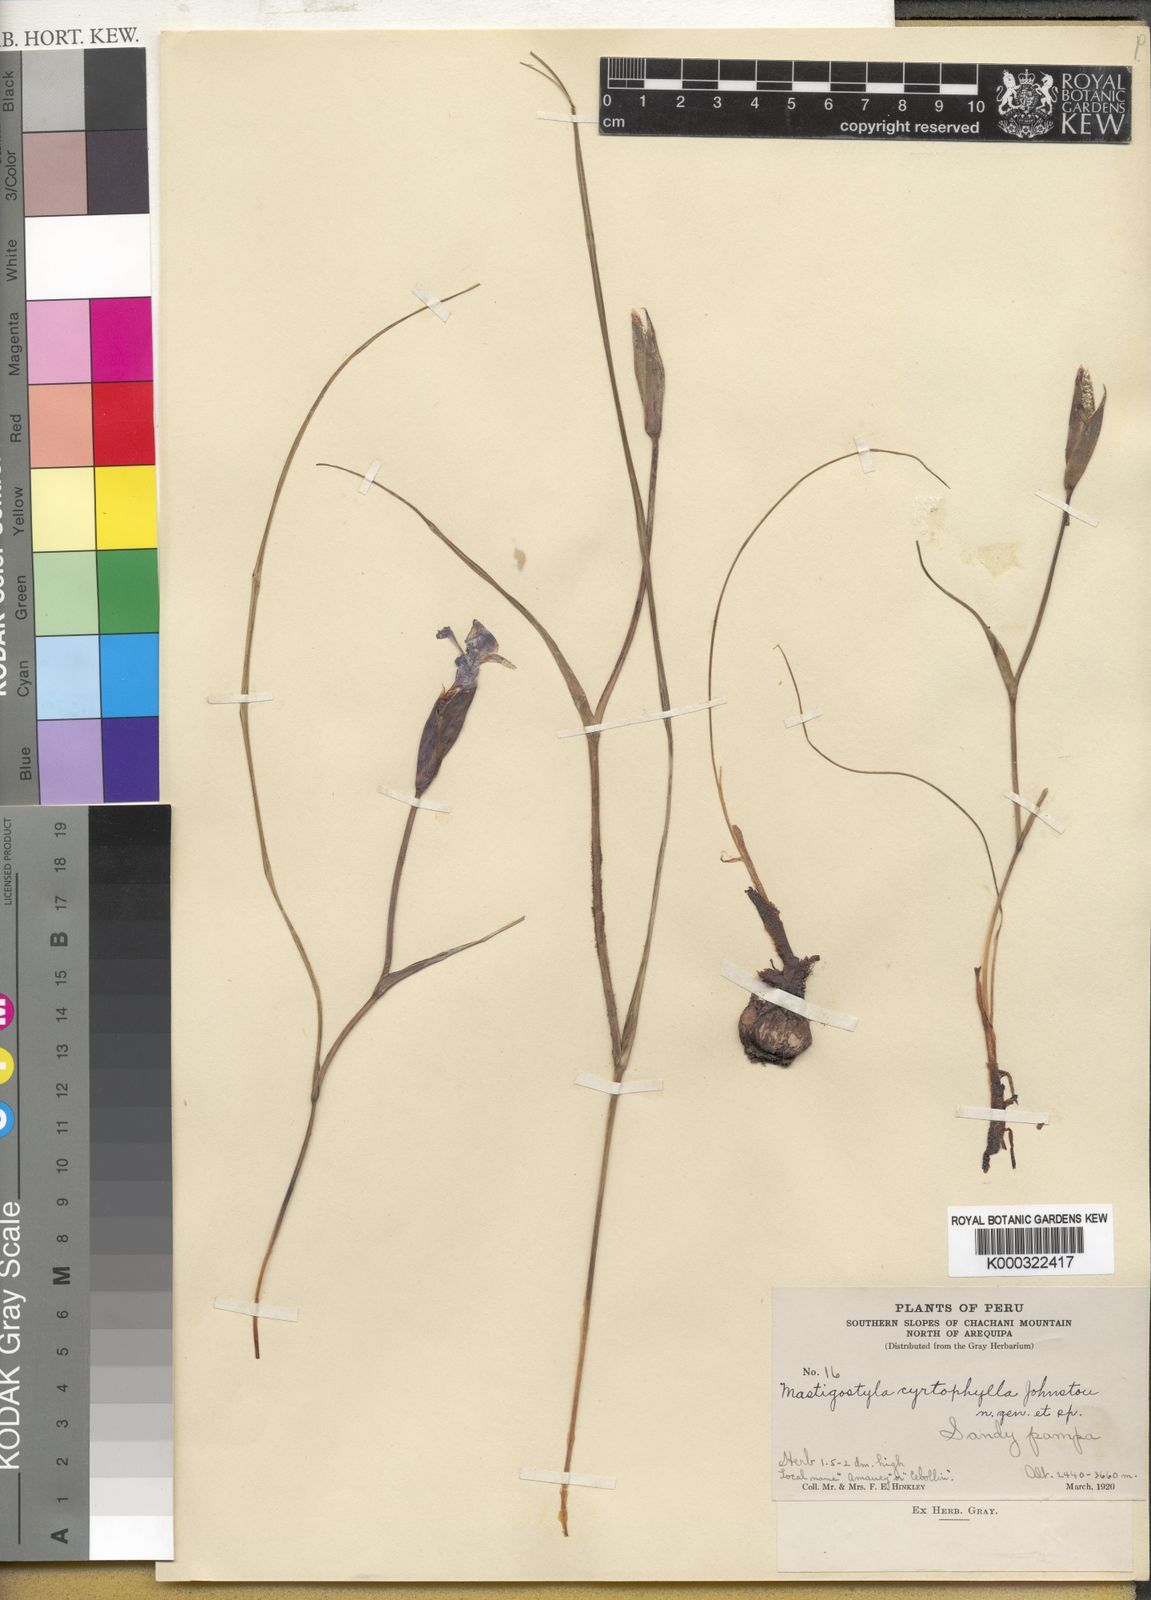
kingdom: Plantae
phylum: Tracheophyta
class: Liliopsida
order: Asparagales
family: Iridaceae
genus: Mastigostyla
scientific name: Mastigostyla cyrtophylla
